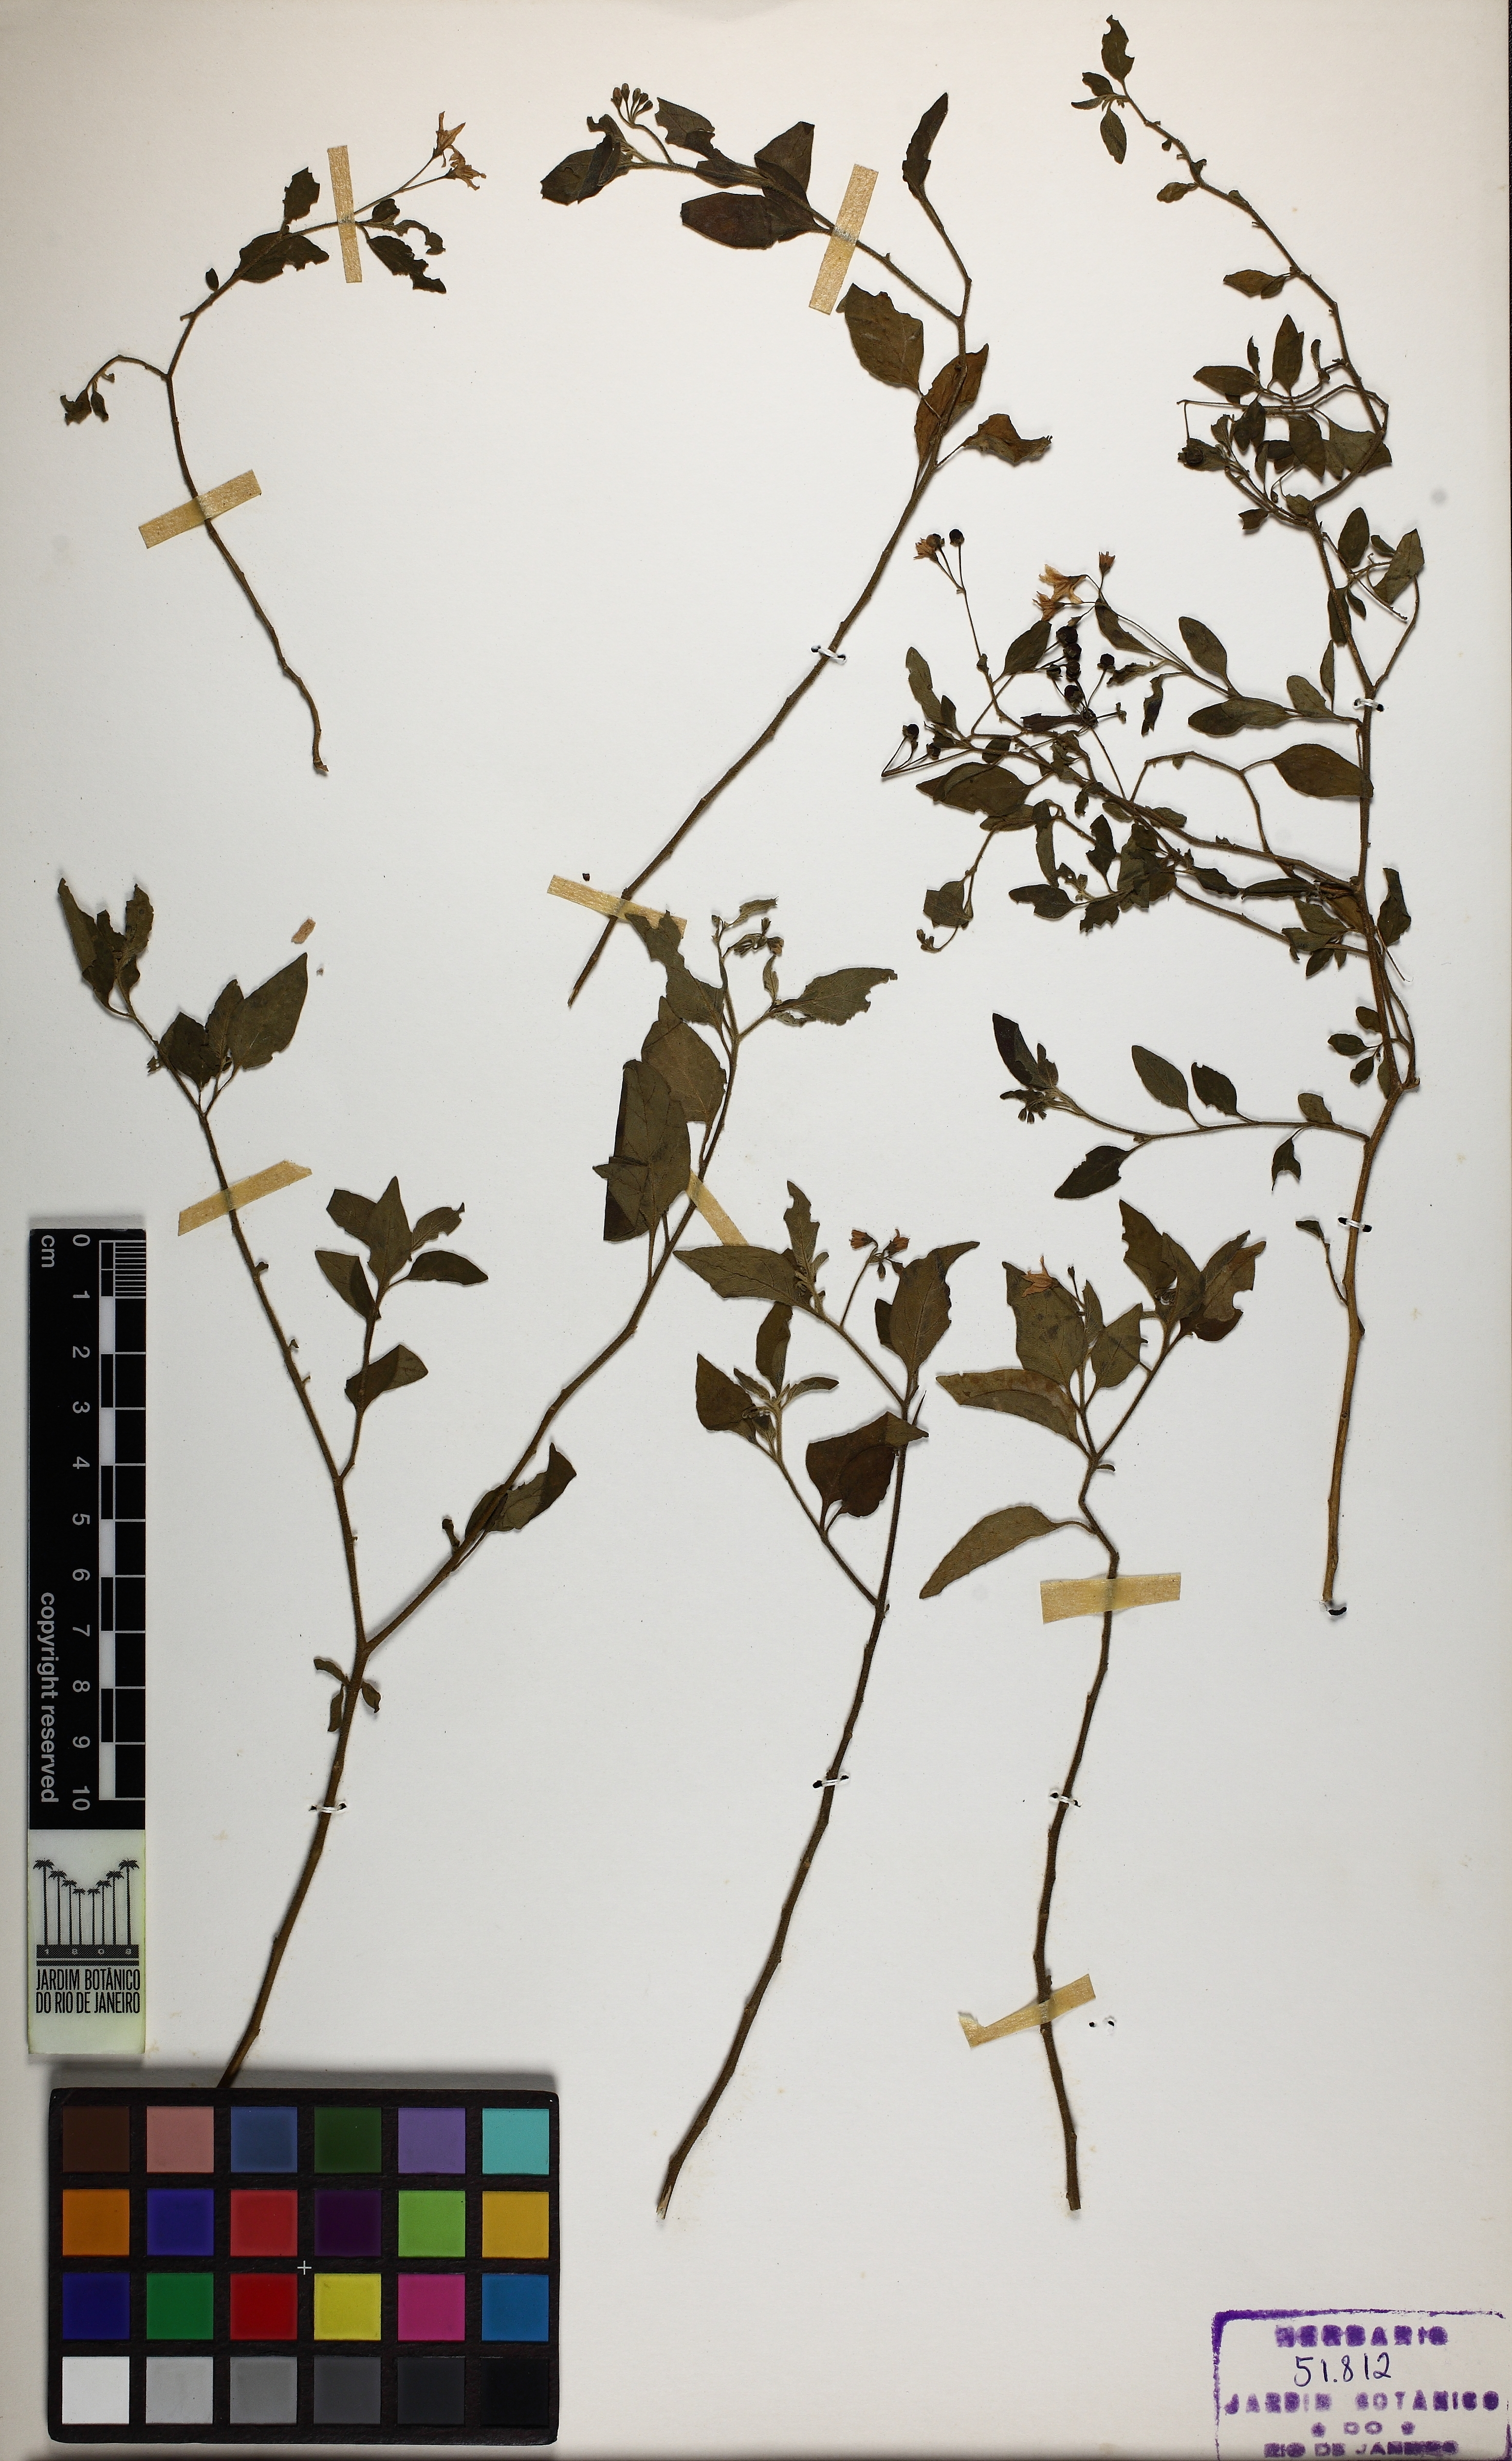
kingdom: Plantae
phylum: Tracheophyta
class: Magnoliopsida
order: Solanales
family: Solanaceae
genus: Solanum
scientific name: Solanum paucidens
